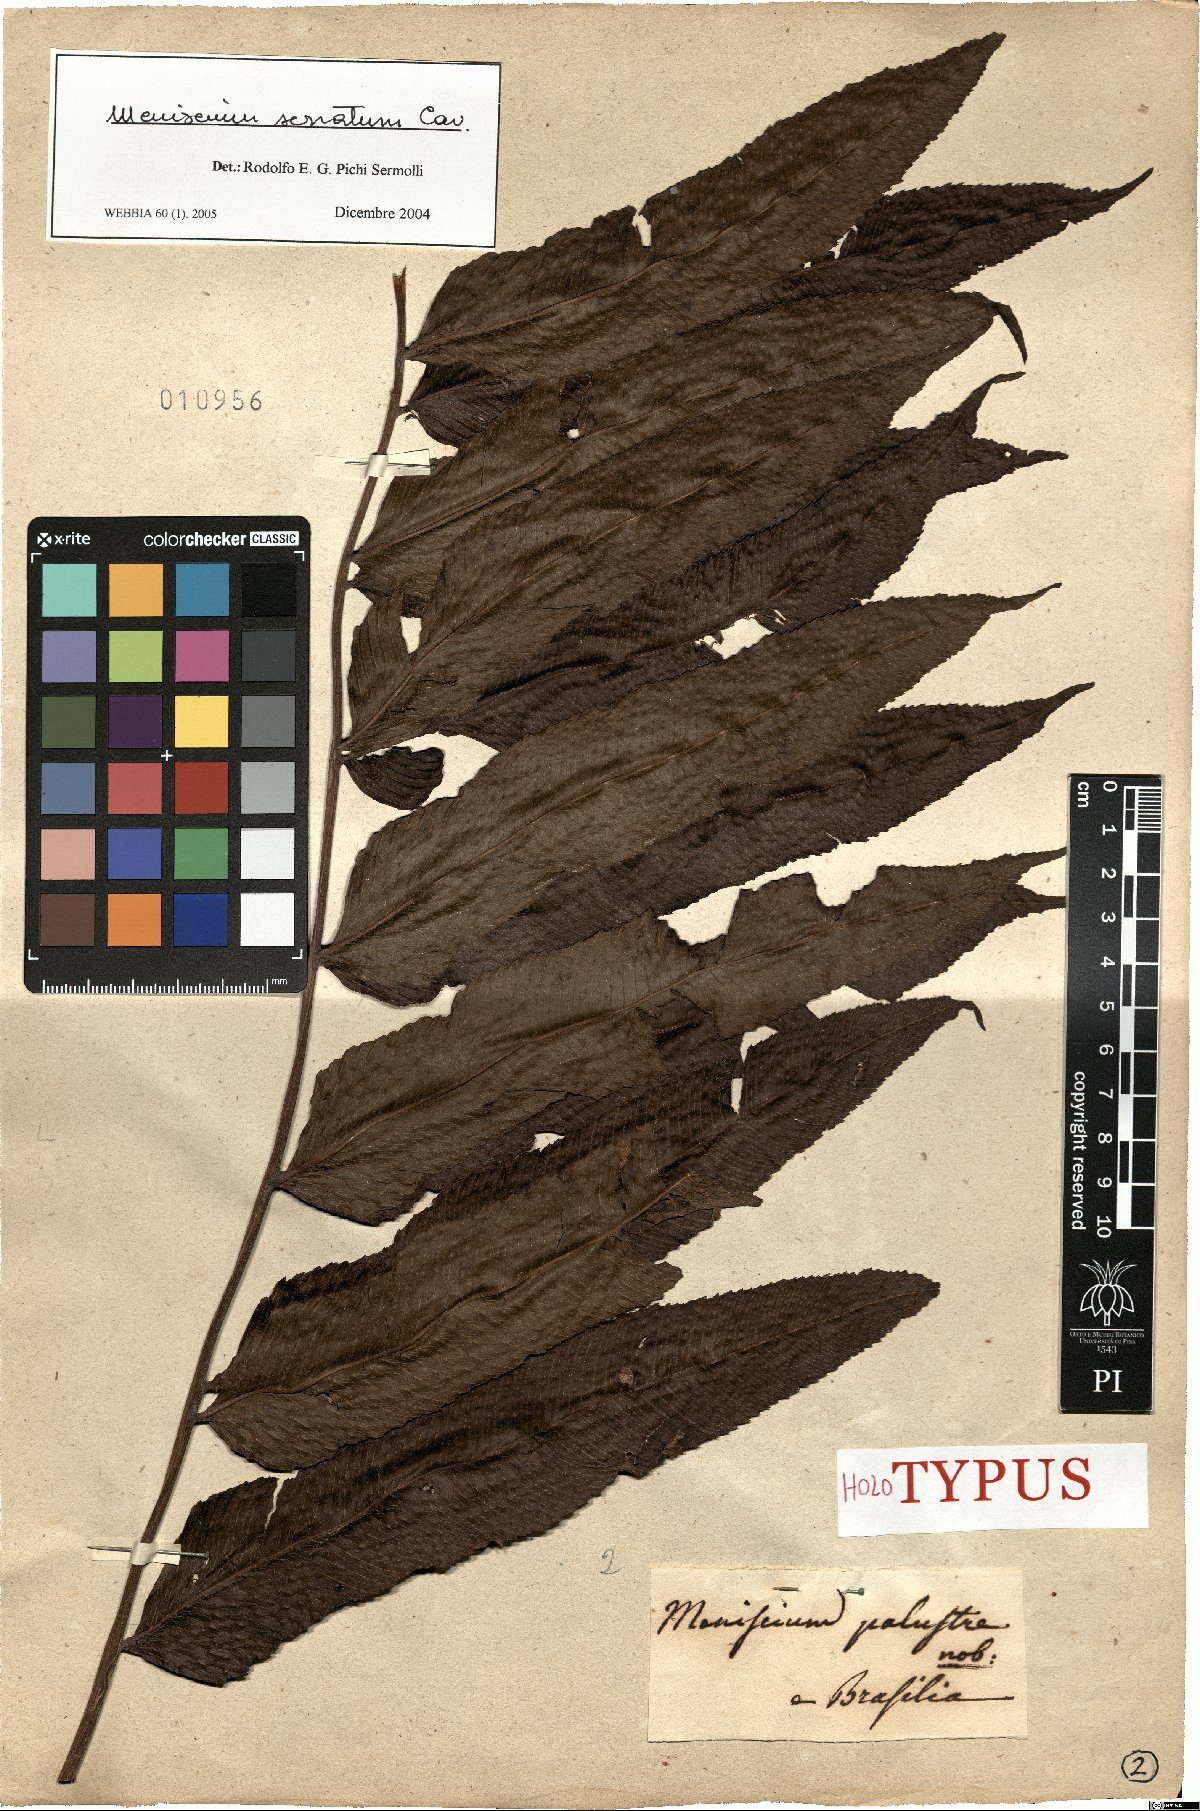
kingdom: Plantae
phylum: Tracheophyta
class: Polypodiopsida
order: Polypodiales
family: Thelypteridaceae
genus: Meniscium
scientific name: Meniscium serratum
